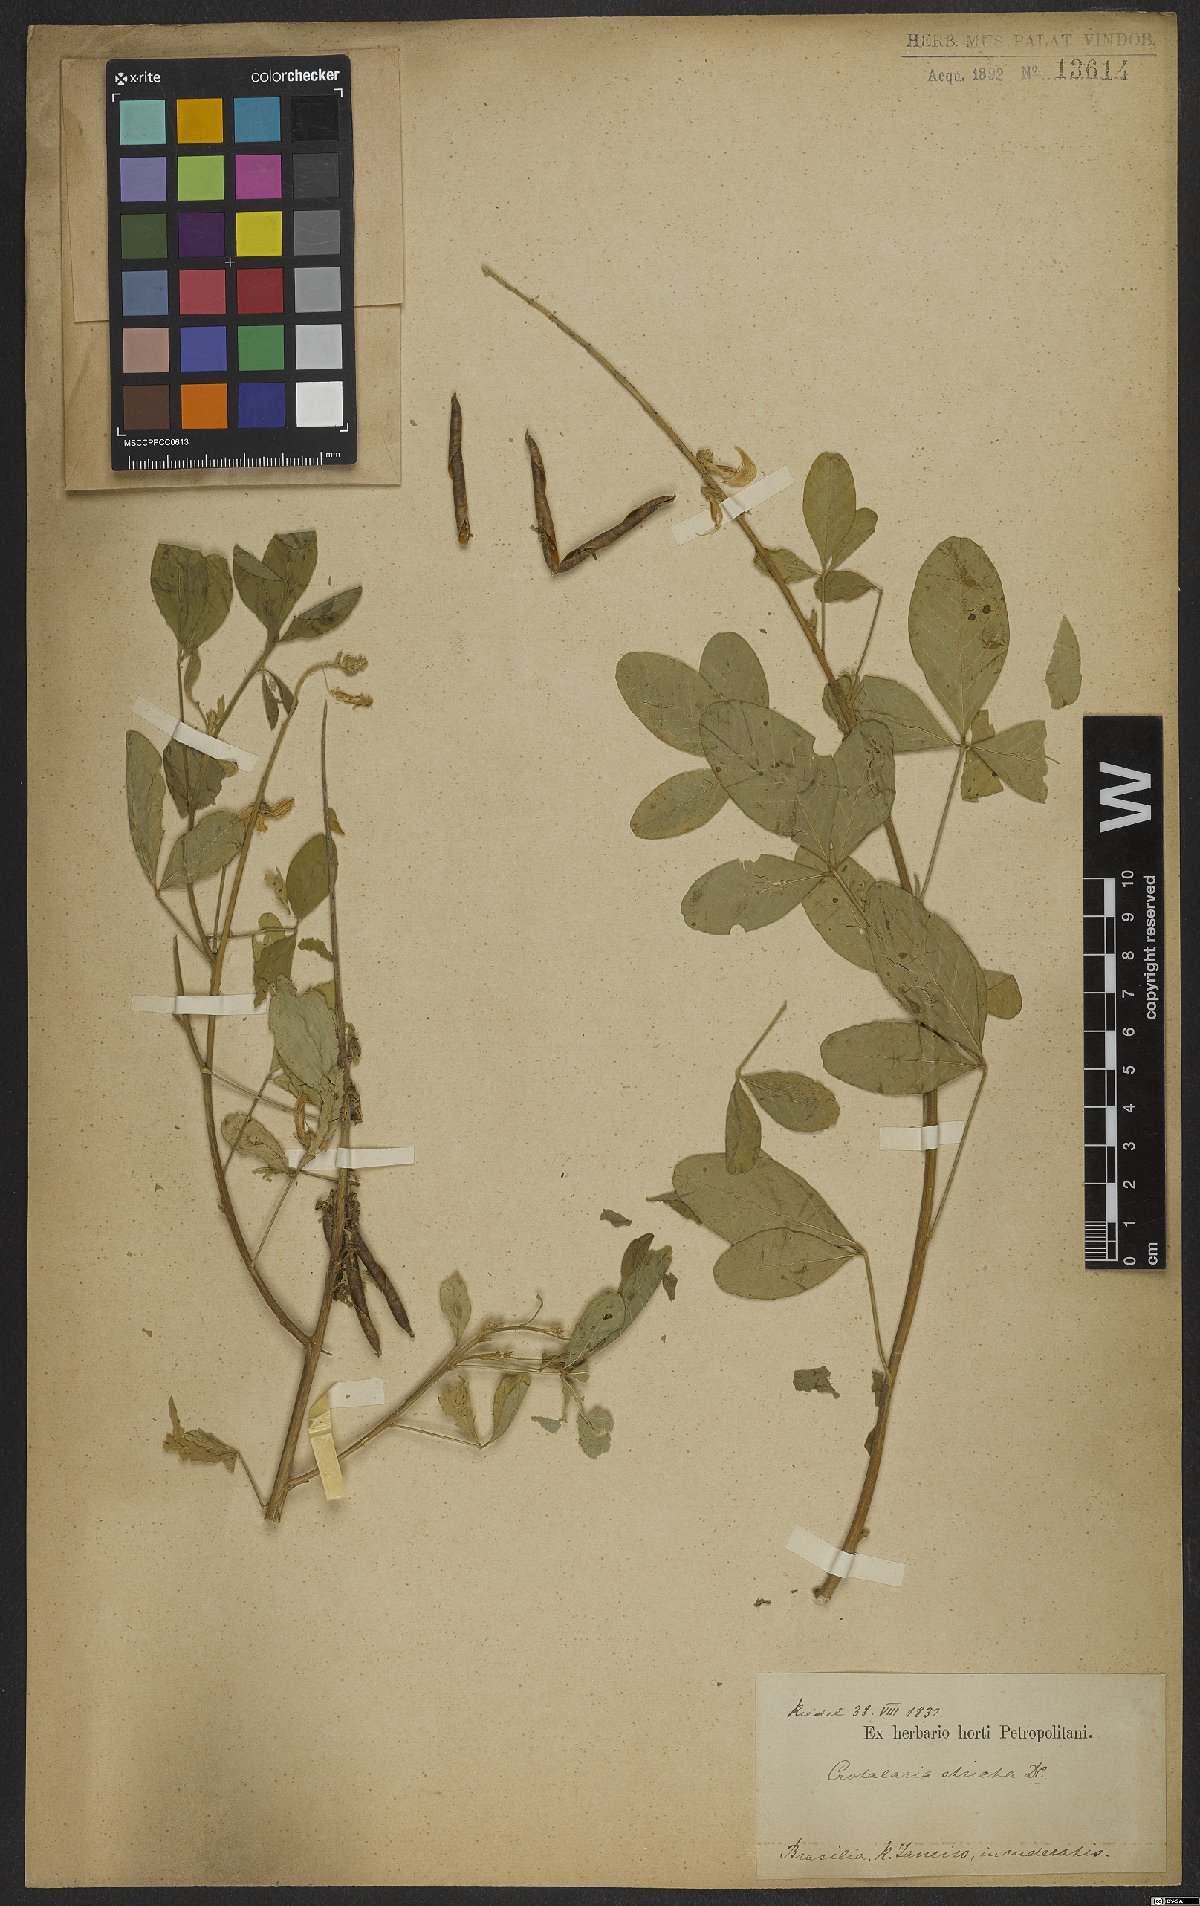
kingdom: Plantae
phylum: Tracheophyta
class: Magnoliopsida
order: Fabales
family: Fabaceae
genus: Crotalaria
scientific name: Crotalaria saltiana
